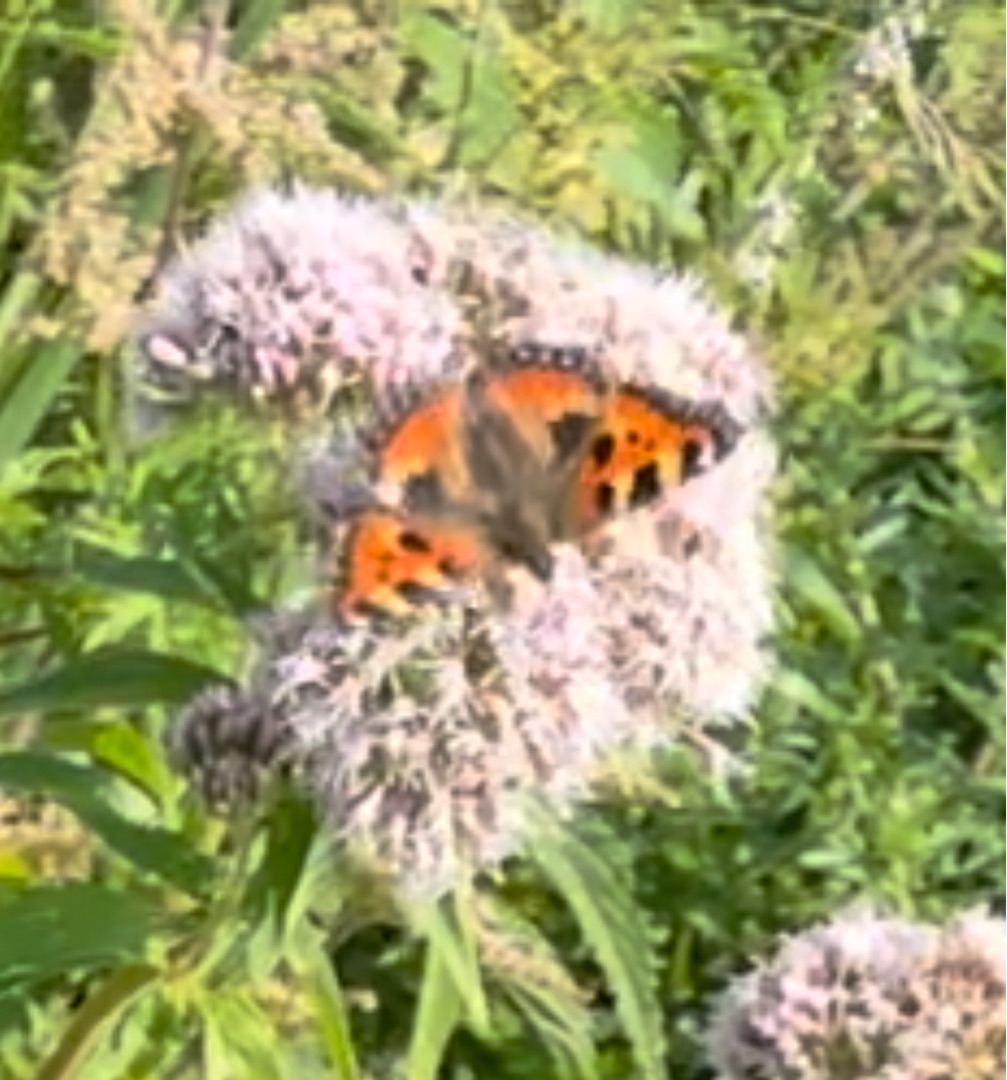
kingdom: Animalia
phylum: Arthropoda
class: Insecta
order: Lepidoptera
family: Nymphalidae
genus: Aglais
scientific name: Aglais urticae
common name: Nældens takvinge
